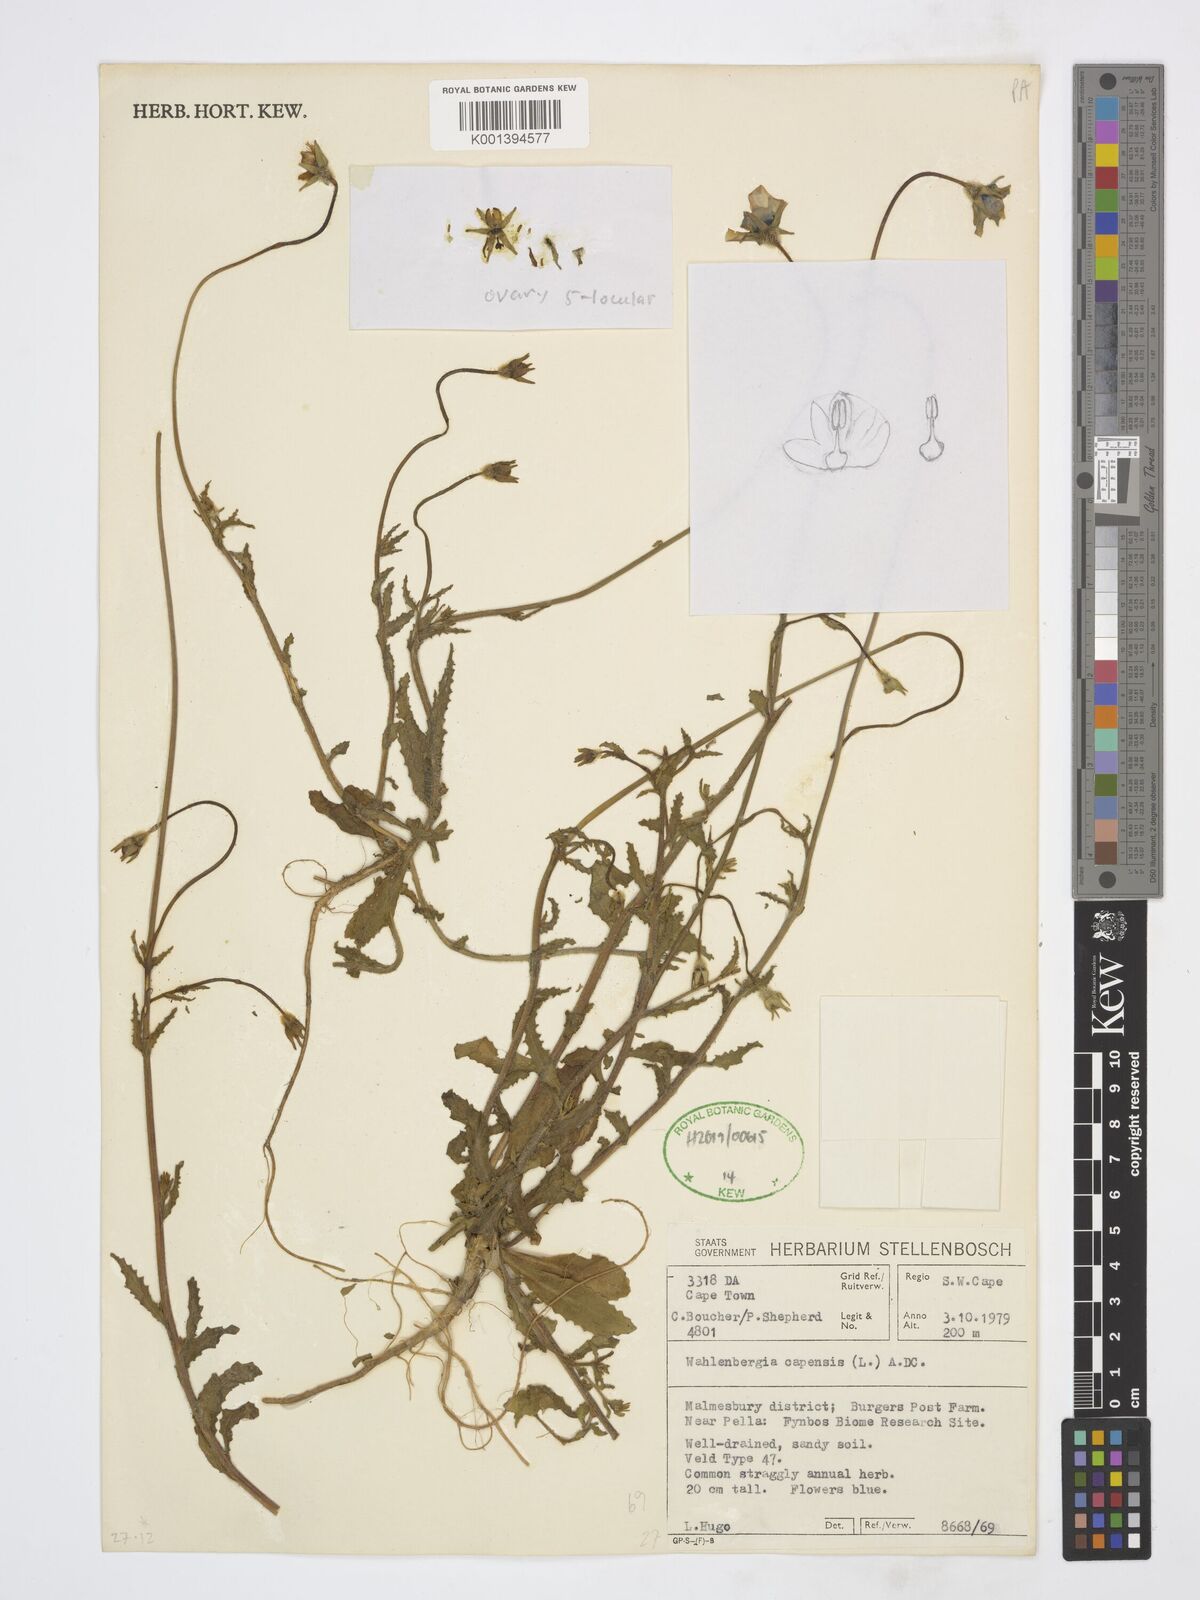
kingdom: Plantae
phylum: Tracheophyta
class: Magnoliopsida
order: Asterales
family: Campanulaceae
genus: Wahlenbergia
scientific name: Wahlenbergia capensis
